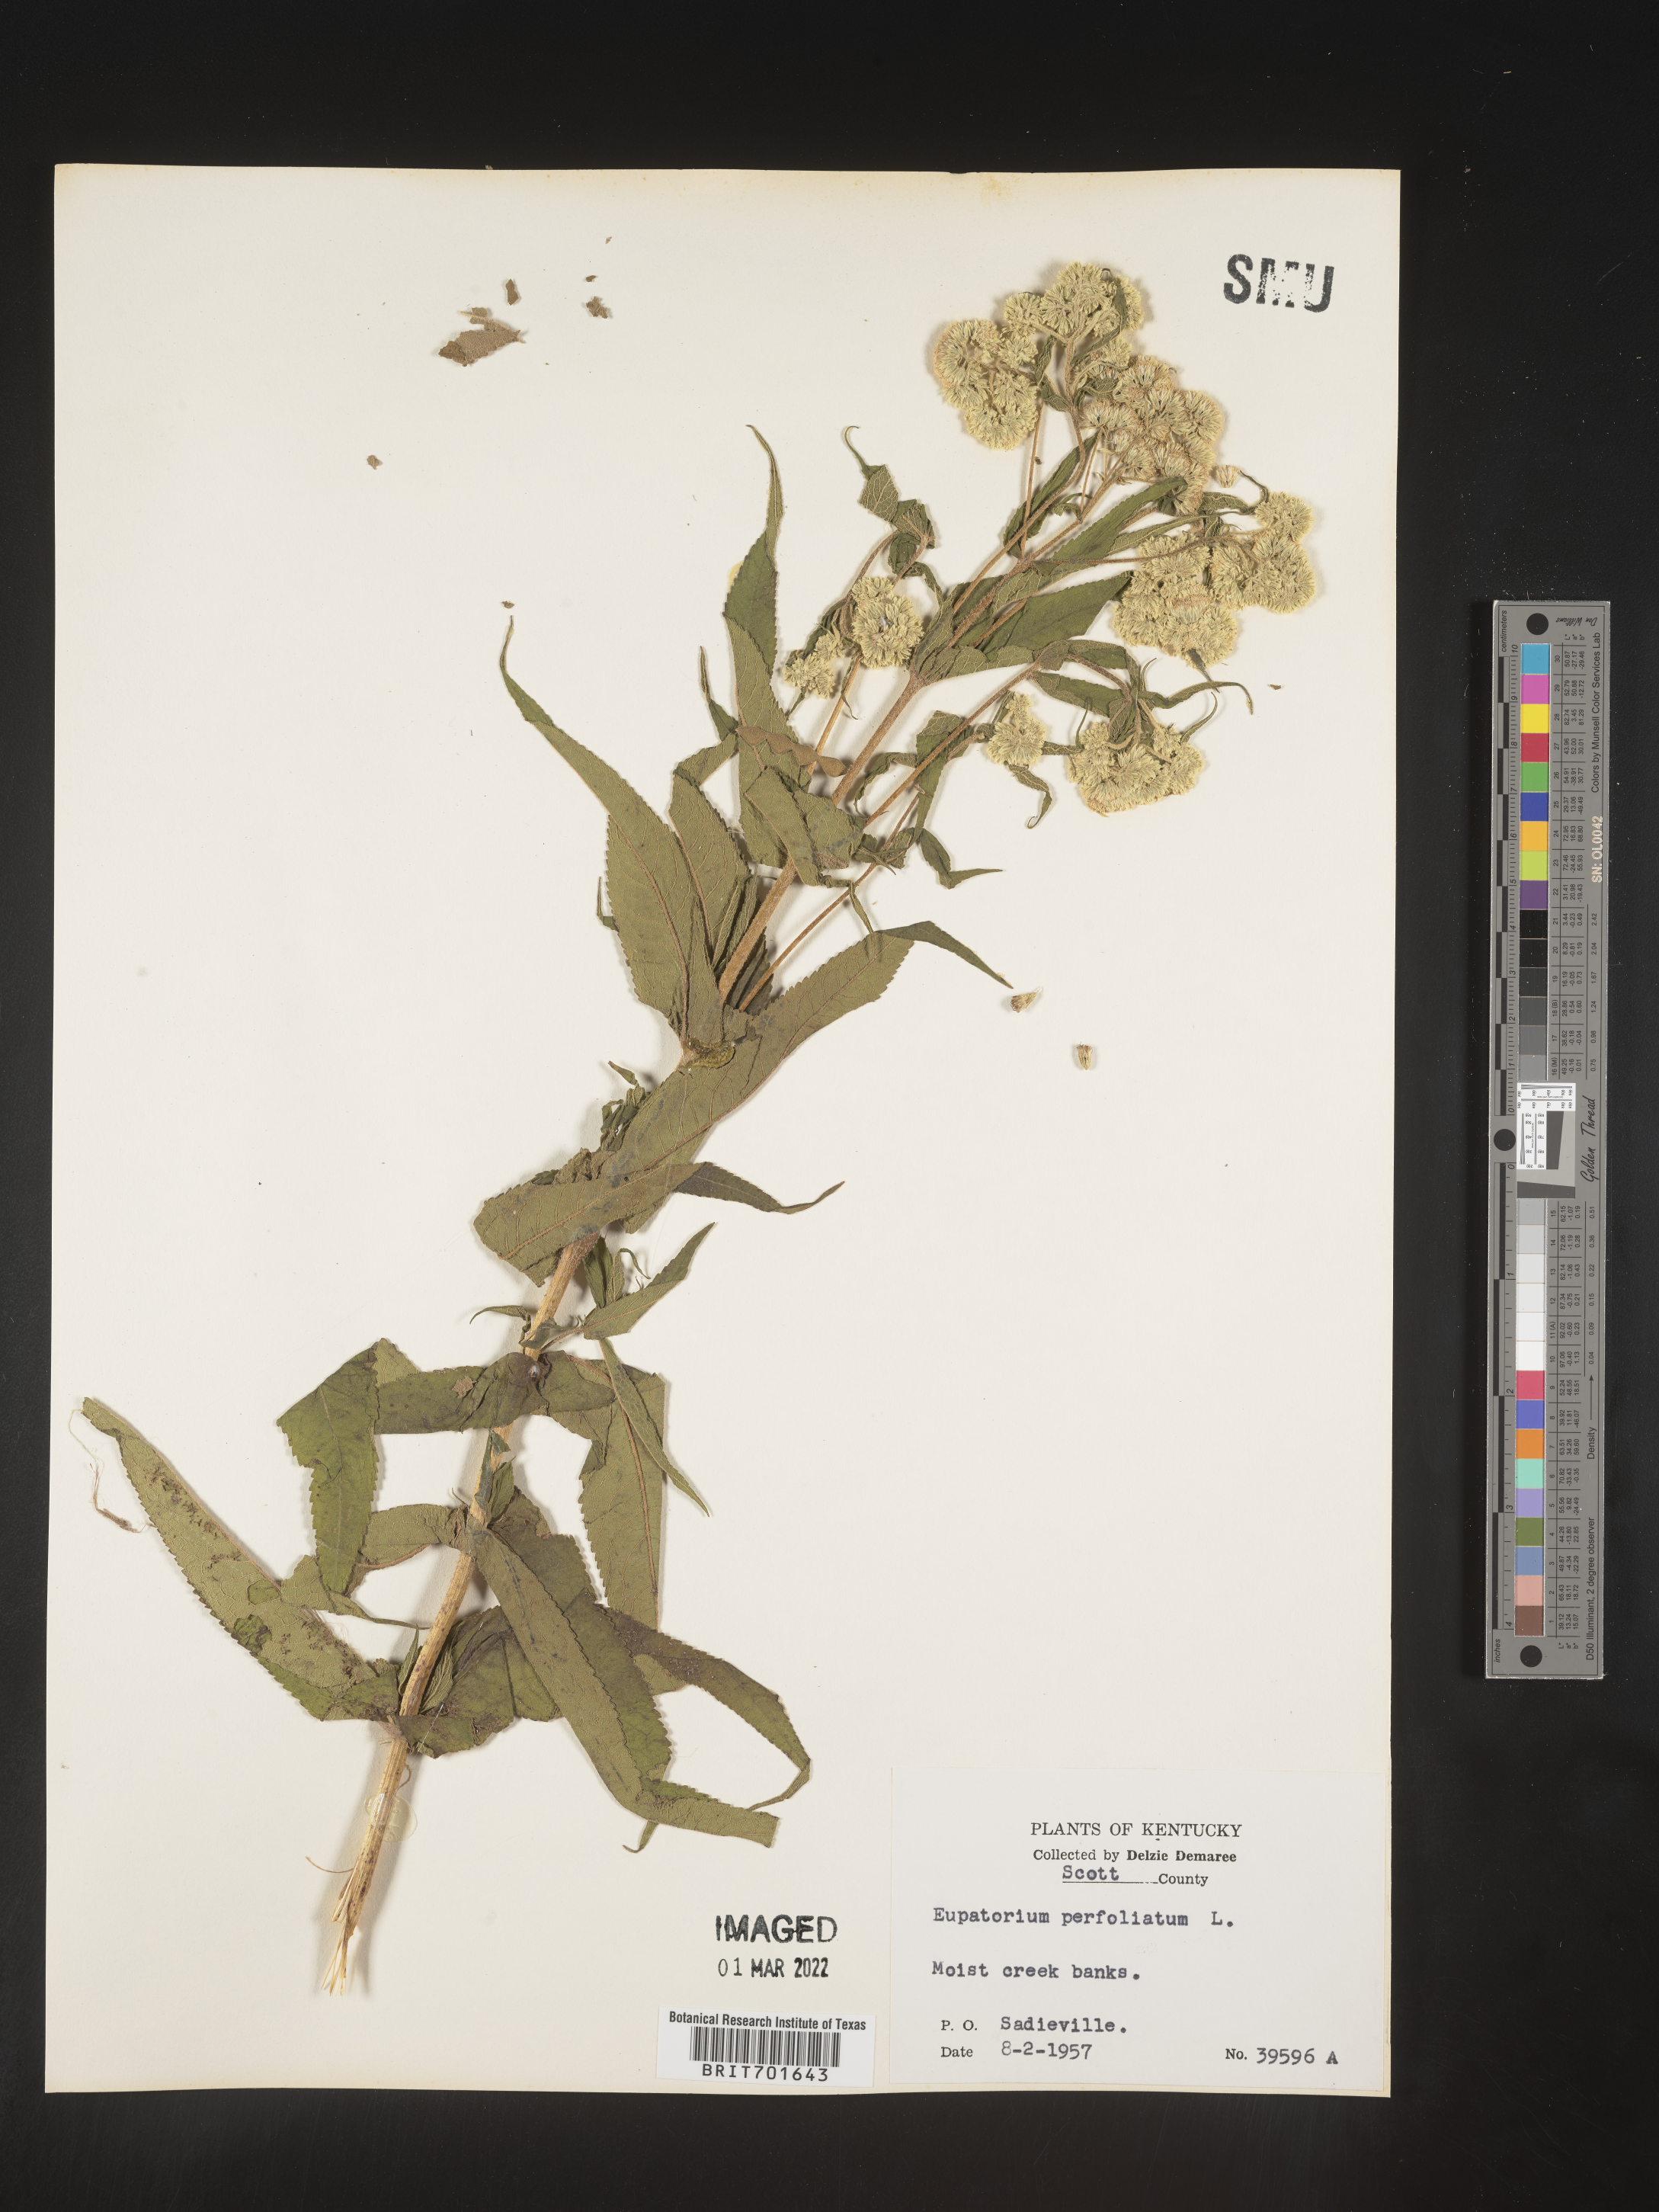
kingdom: Plantae
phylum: Tracheophyta
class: Magnoliopsida
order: Asterales
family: Asteraceae
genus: Eupatorium
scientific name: Eupatorium perfoliatum
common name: Boneset
